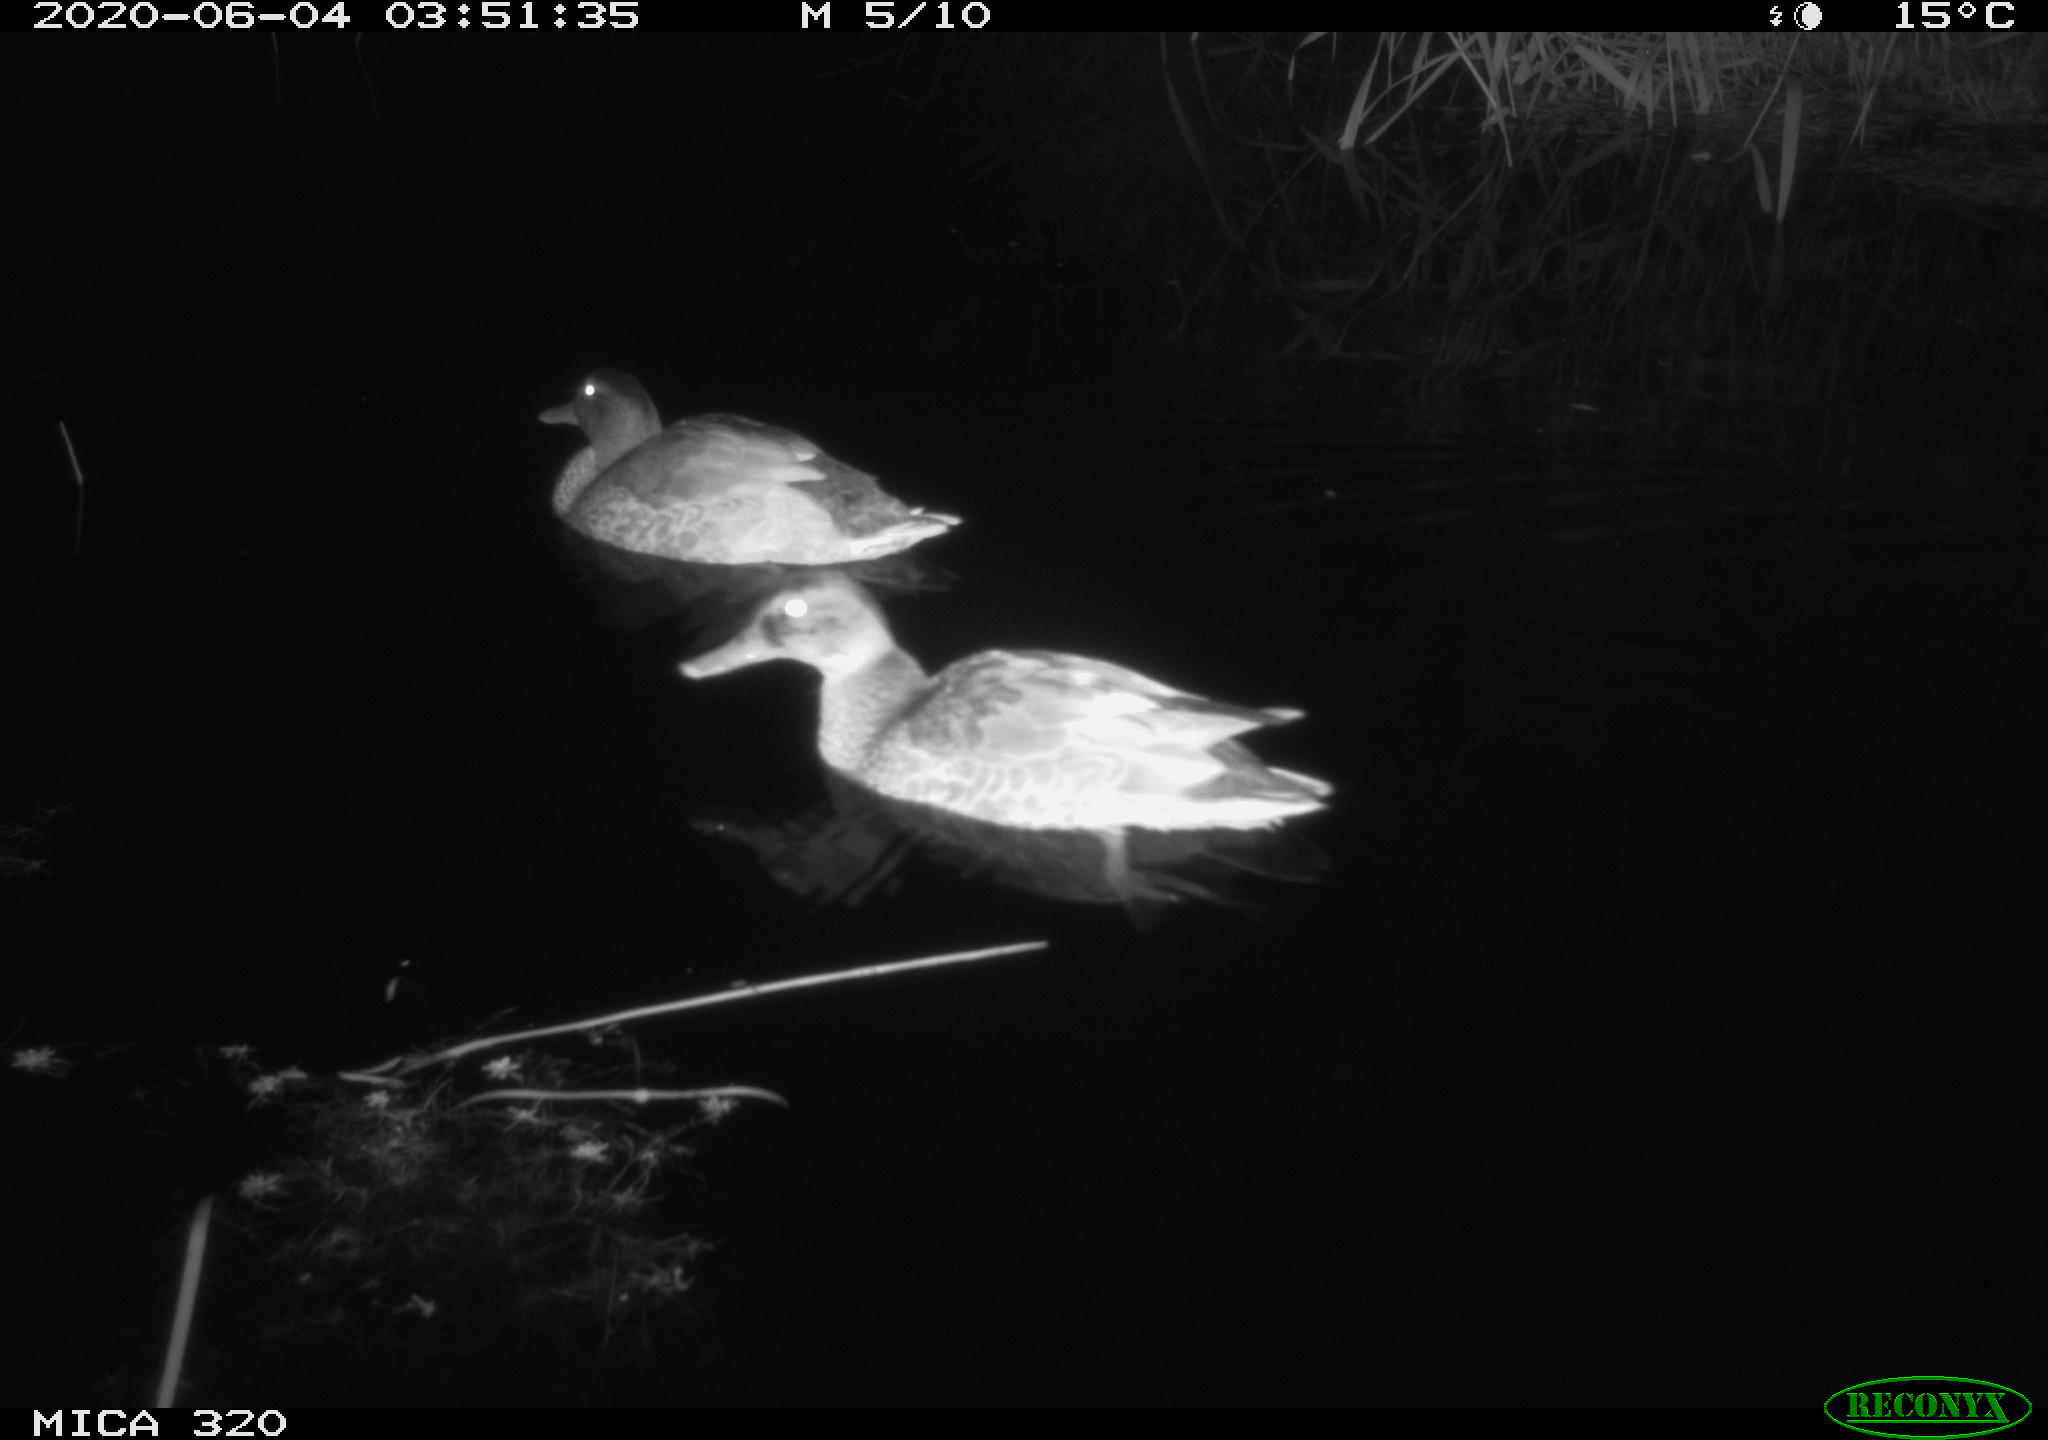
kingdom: Animalia
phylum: Chordata
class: Aves
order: Anseriformes
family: Anatidae
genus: Anas
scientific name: Anas platyrhynchos
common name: Mallard
